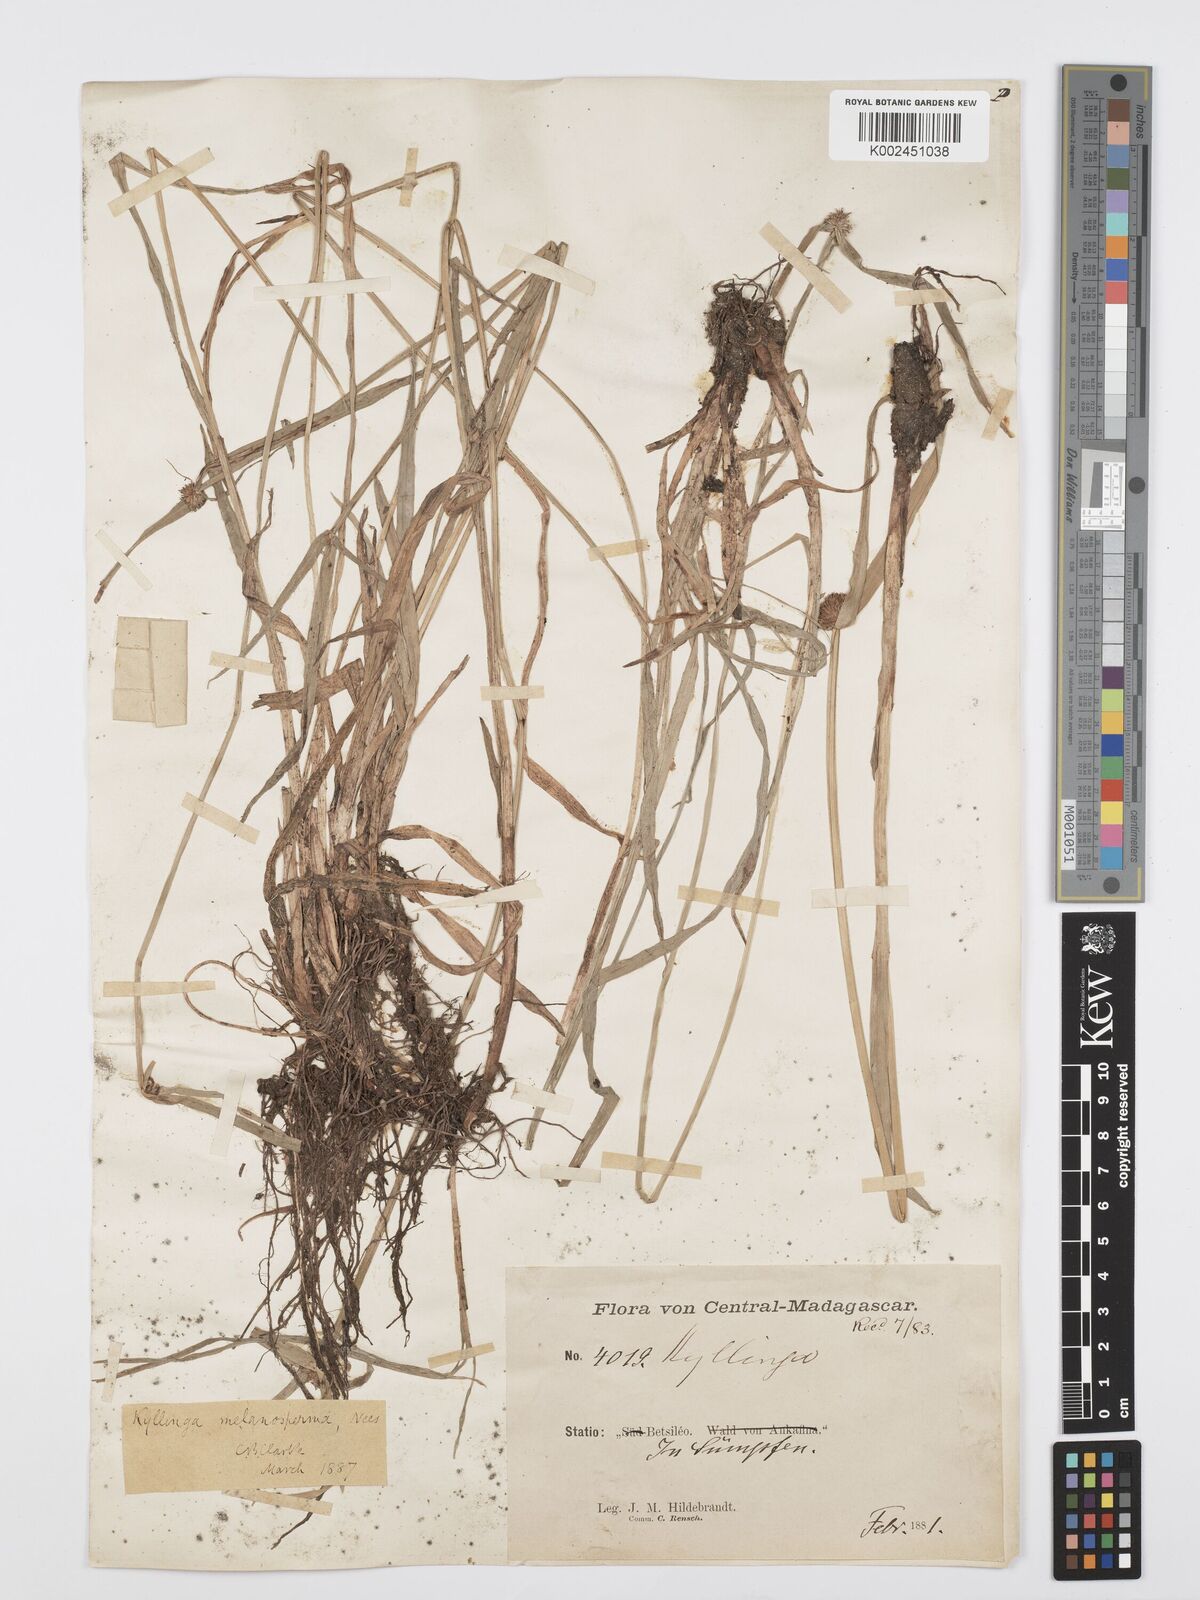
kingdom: Plantae
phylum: Tracheophyta
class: Liliopsida
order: Poales
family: Cyperaceae
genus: Cyperus
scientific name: Cyperus melanospermus
